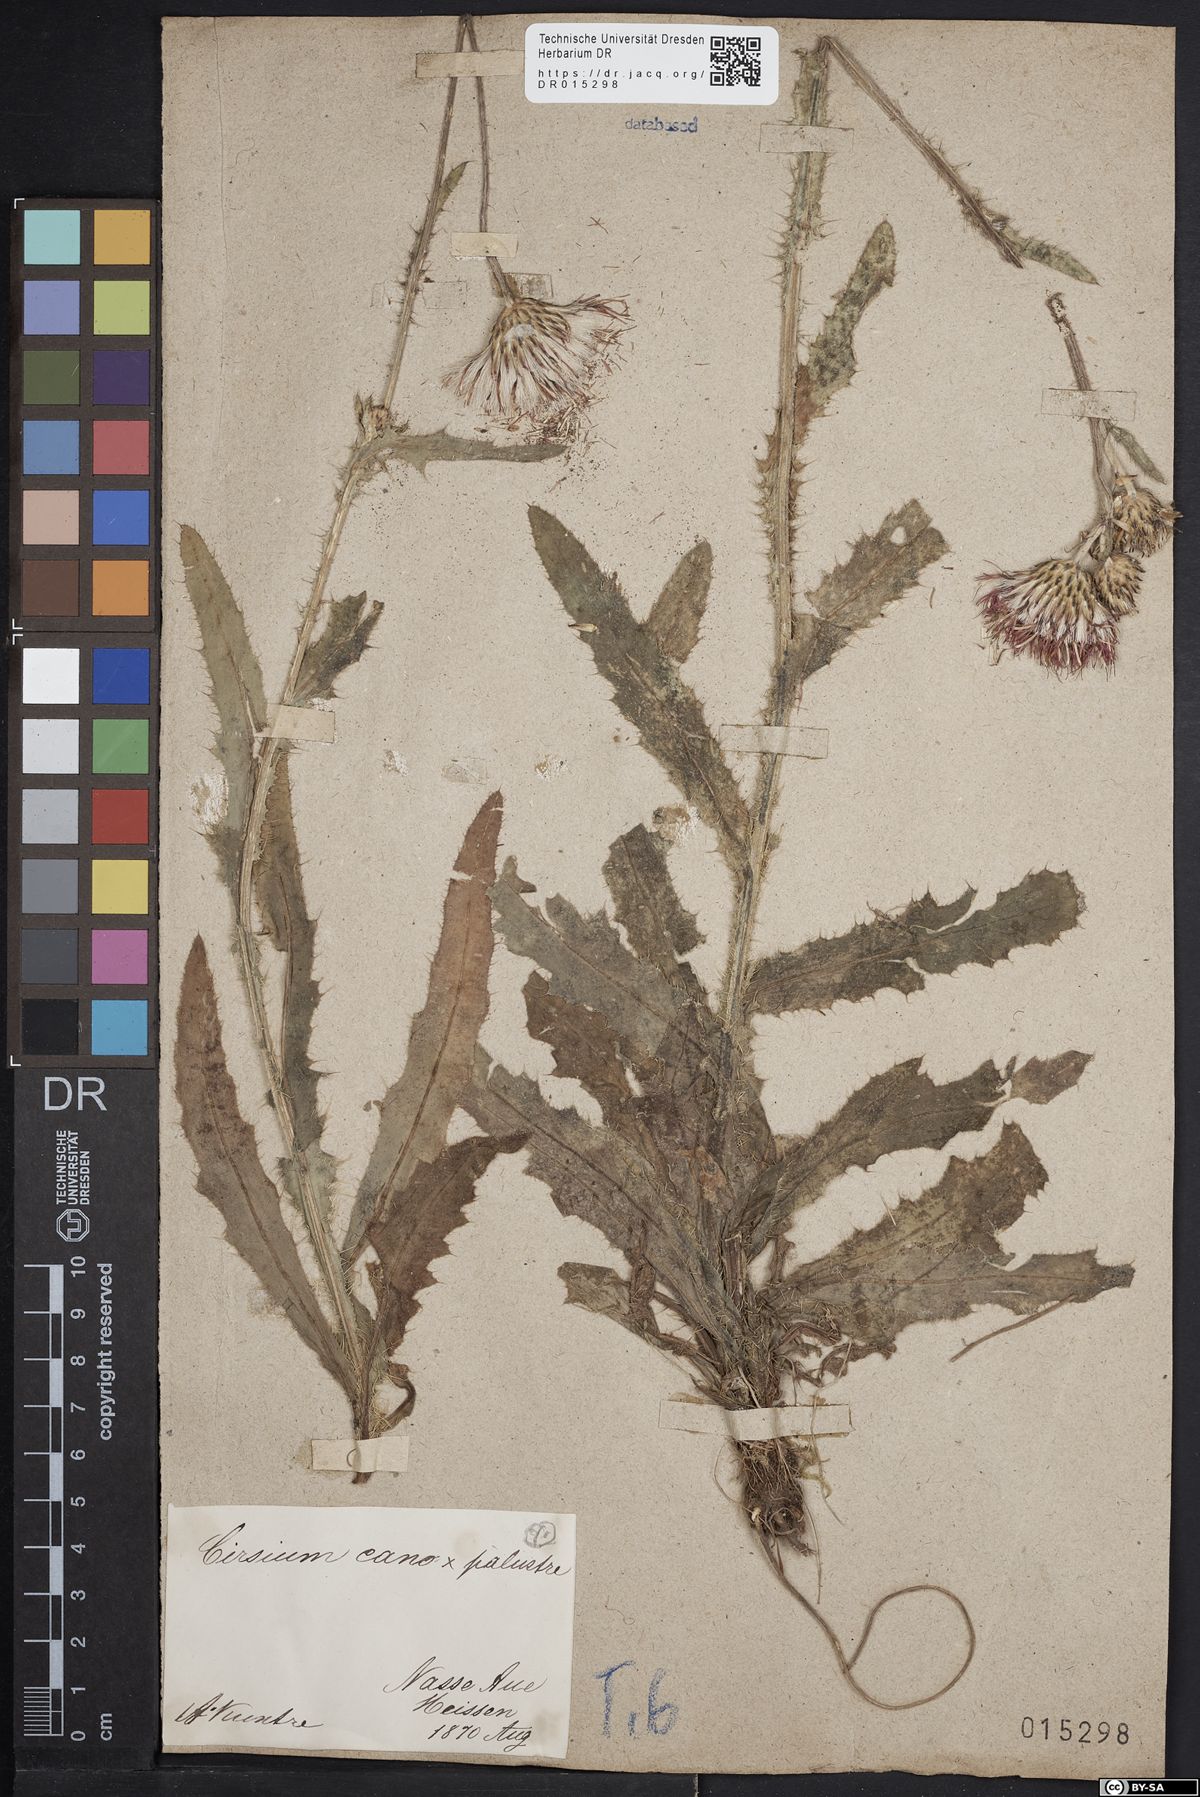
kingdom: Plantae
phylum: Tracheophyta
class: Magnoliopsida
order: Asterales
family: Asteraceae
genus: Cirsium
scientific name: Cirsium silesiacum
